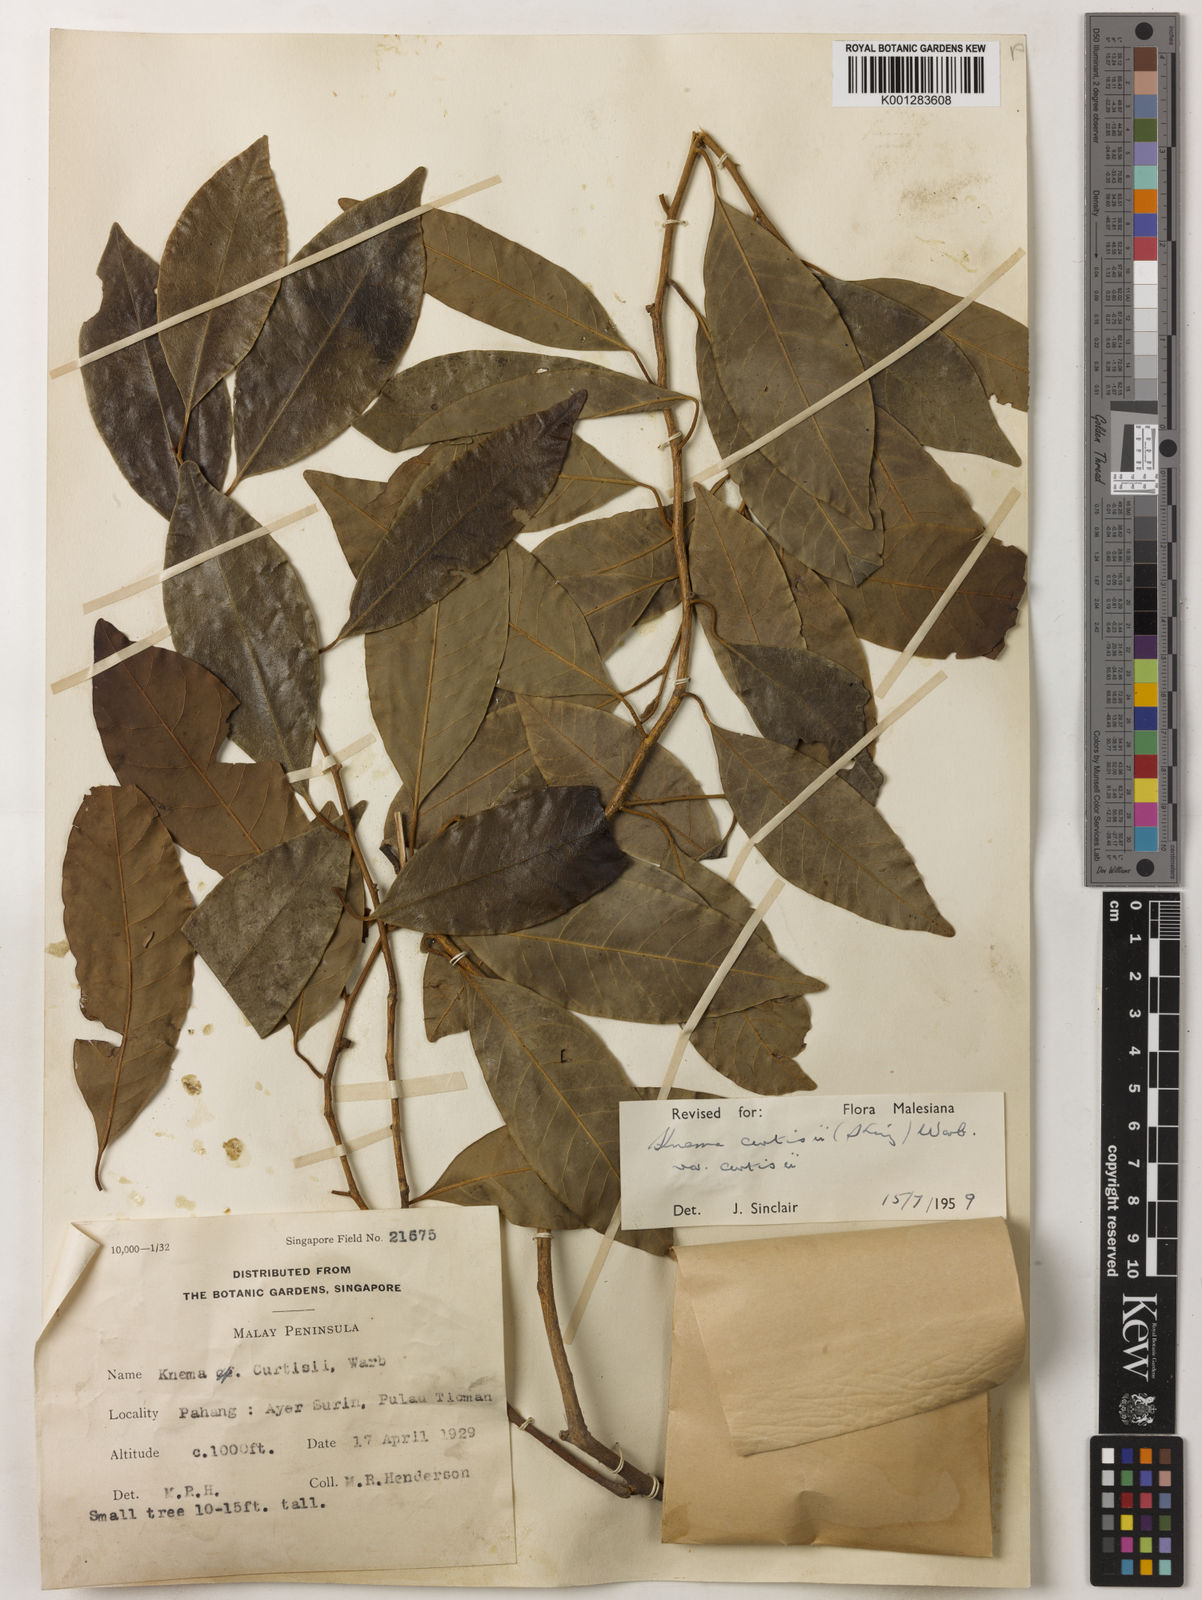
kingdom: Plantae
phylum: Tracheophyta
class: Magnoliopsida
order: Magnoliales
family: Myristicaceae
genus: Knema
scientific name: Knema curtisii
